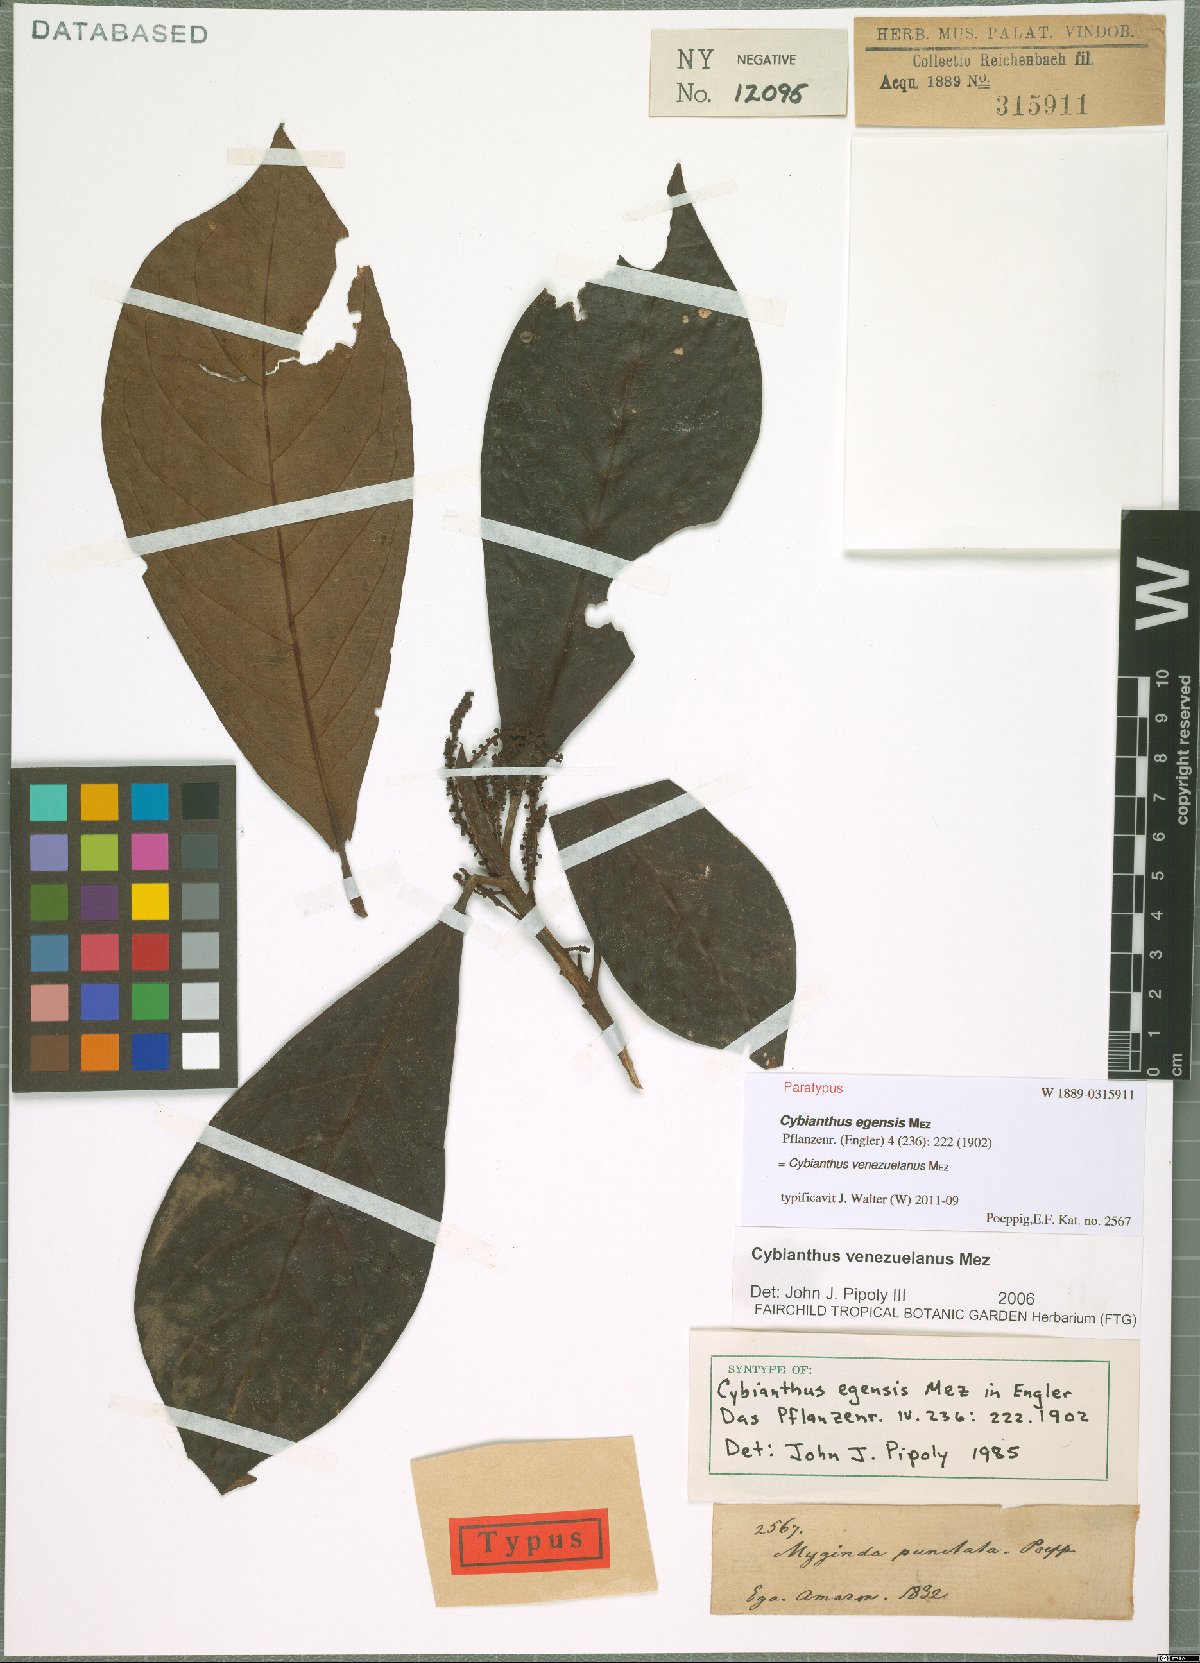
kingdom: Plantae
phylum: Tracheophyta
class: Magnoliopsida
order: Ericales
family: Primulaceae
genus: Cybianthus
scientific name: Cybianthus venezuelanus
